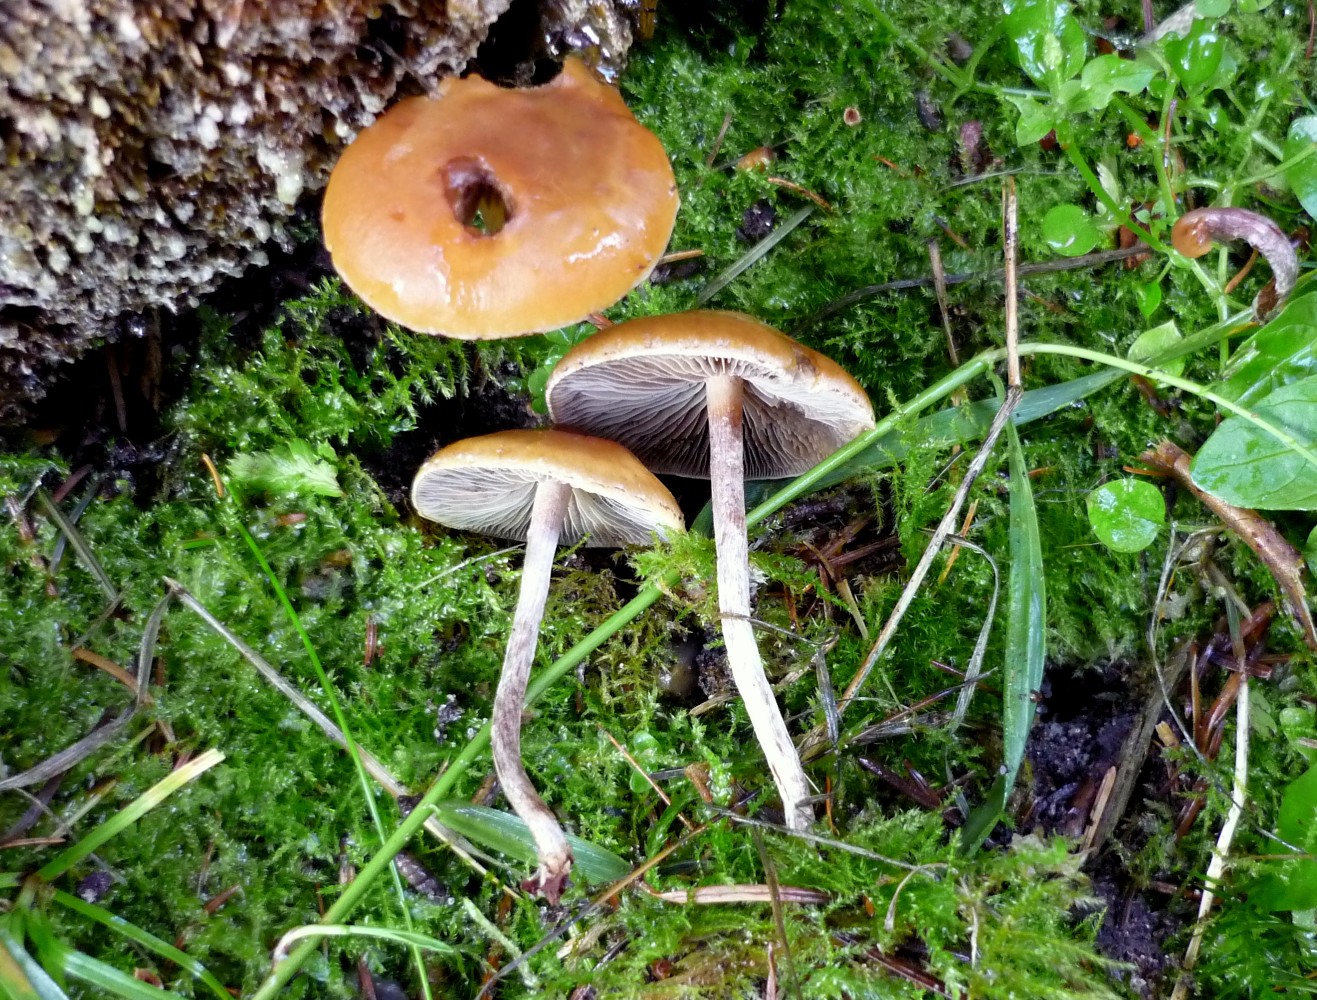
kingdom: Fungi
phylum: Basidiomycota
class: Agaricomycetes
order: Agaricales
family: Strophariaceae
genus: Hypholoma
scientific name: Hypholoma marginatum
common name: enlig svovlhat
